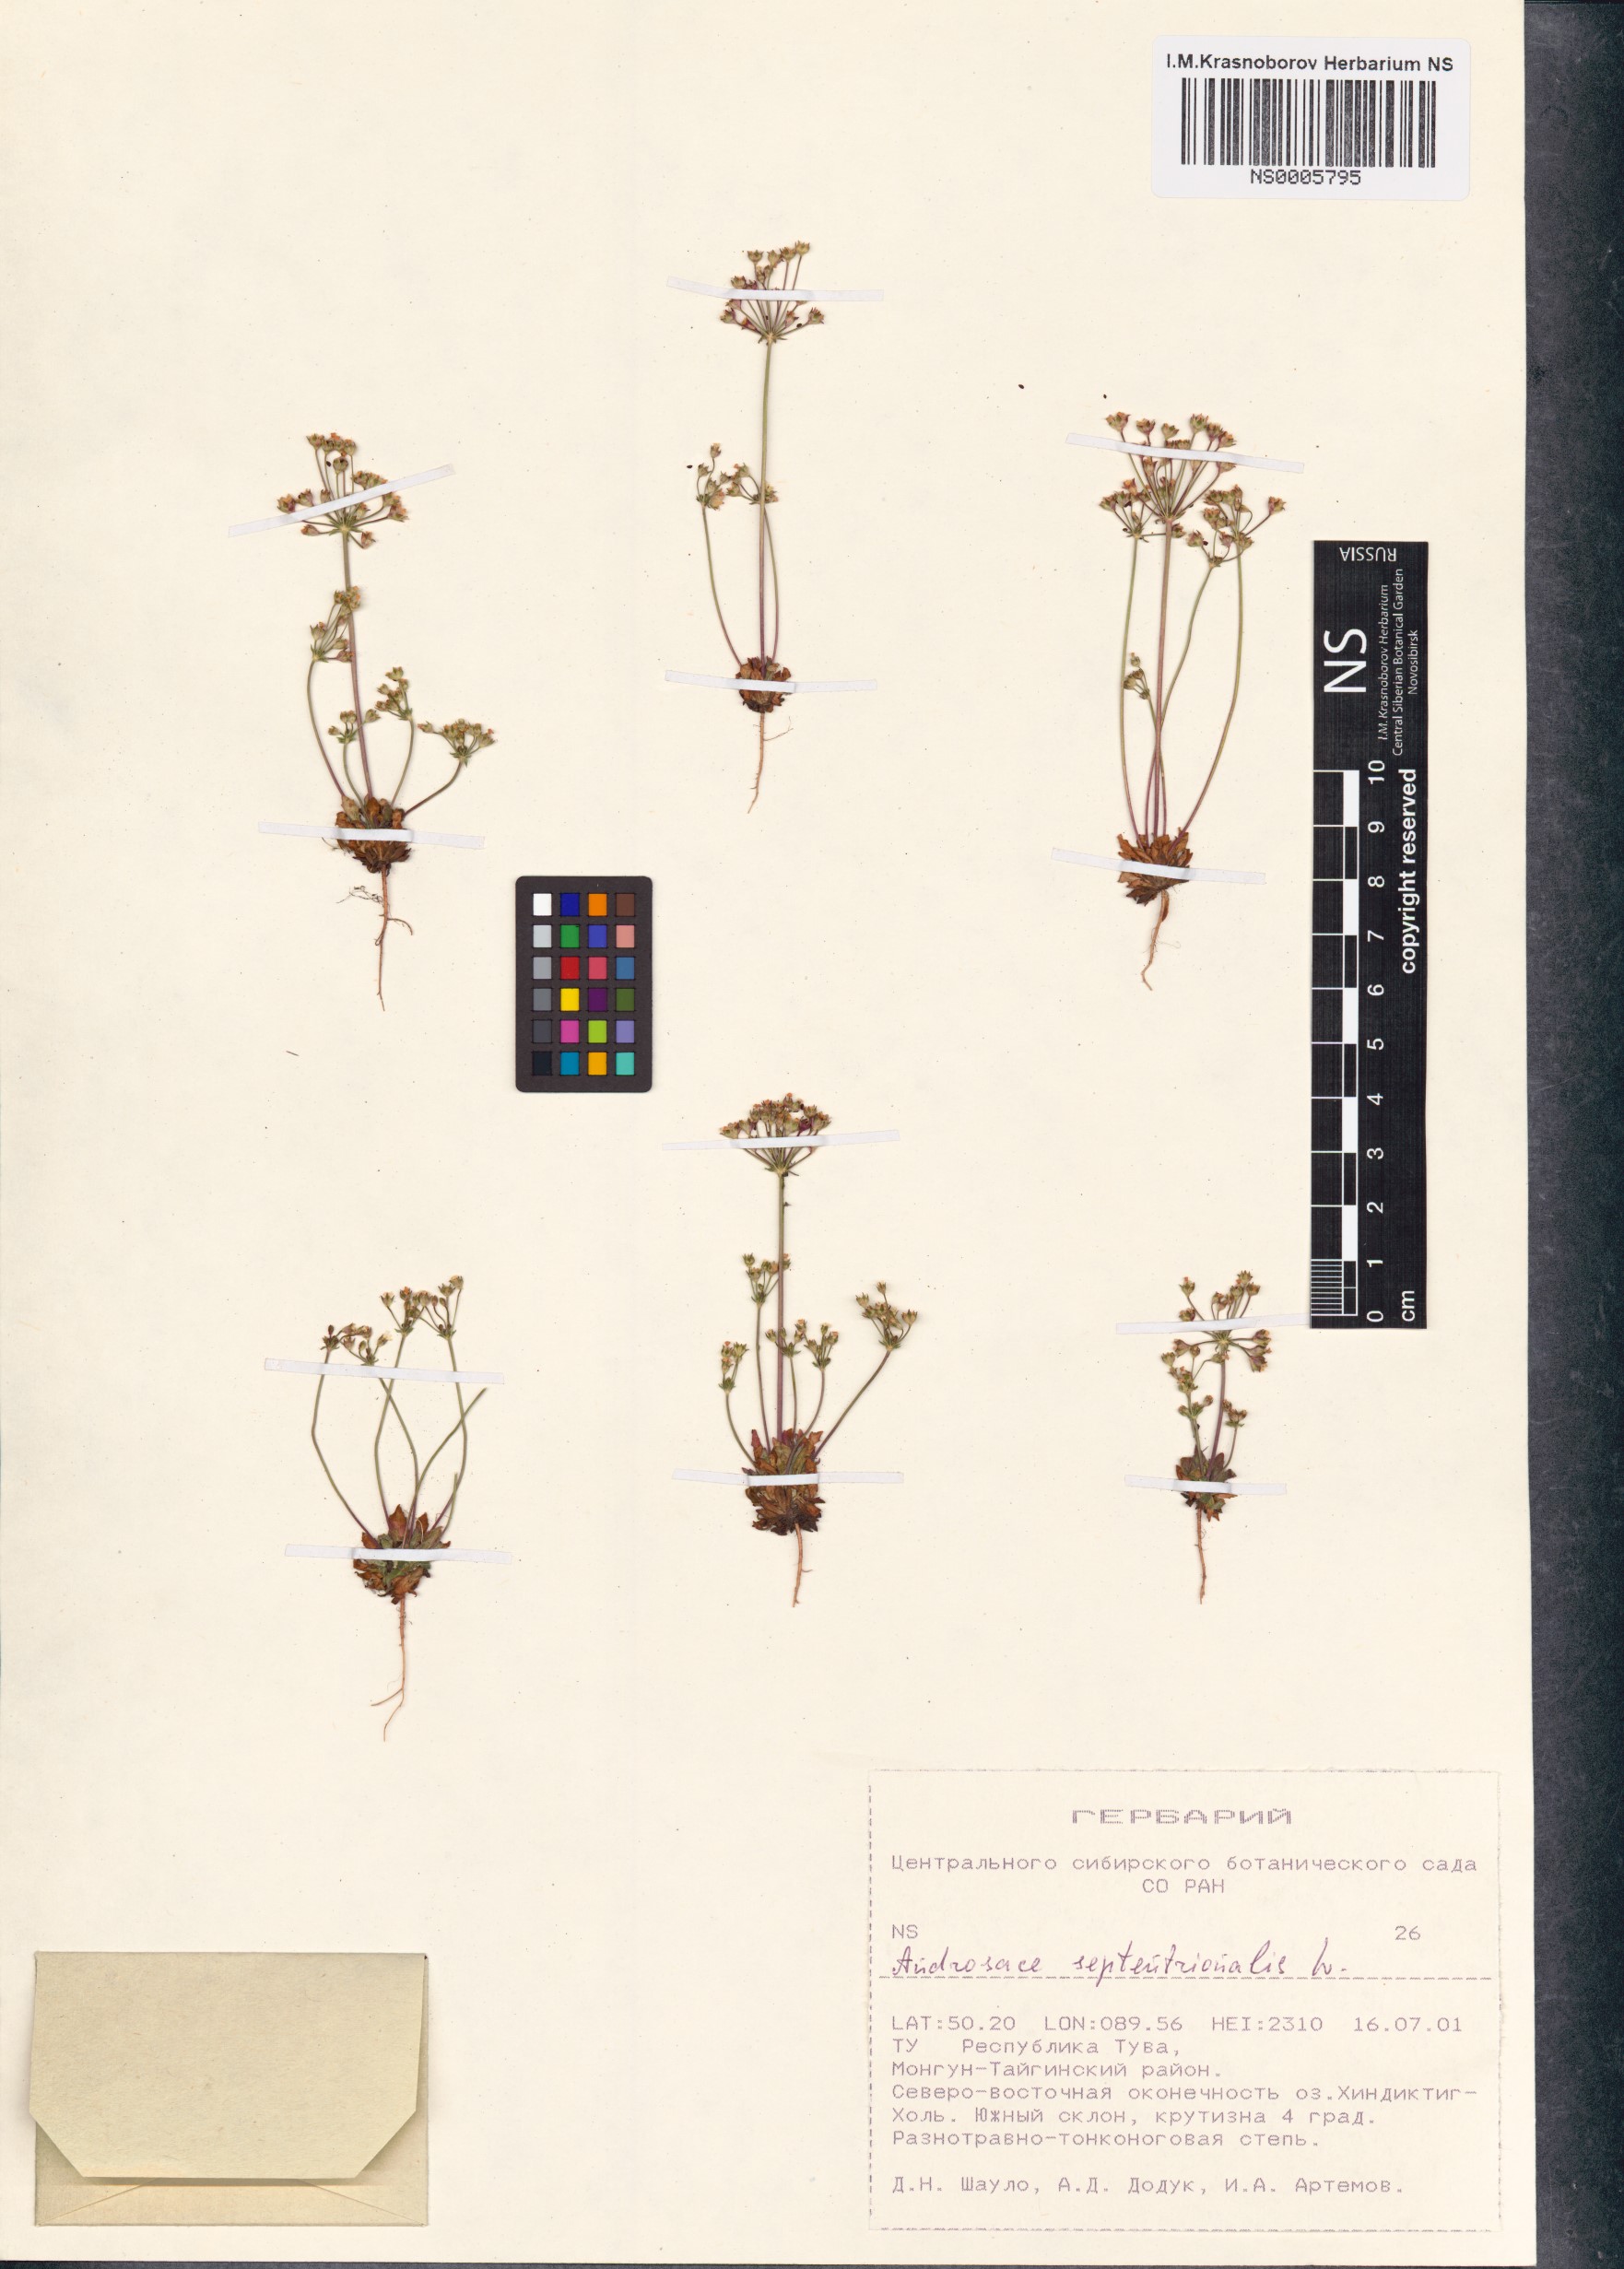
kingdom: Plantae
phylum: Tracheophyta
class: Magnoliopsida
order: Ericales
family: Primulaceae
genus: Androsace
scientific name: Androsace septentrionalis
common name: Hairy northern fairy-candelabra
